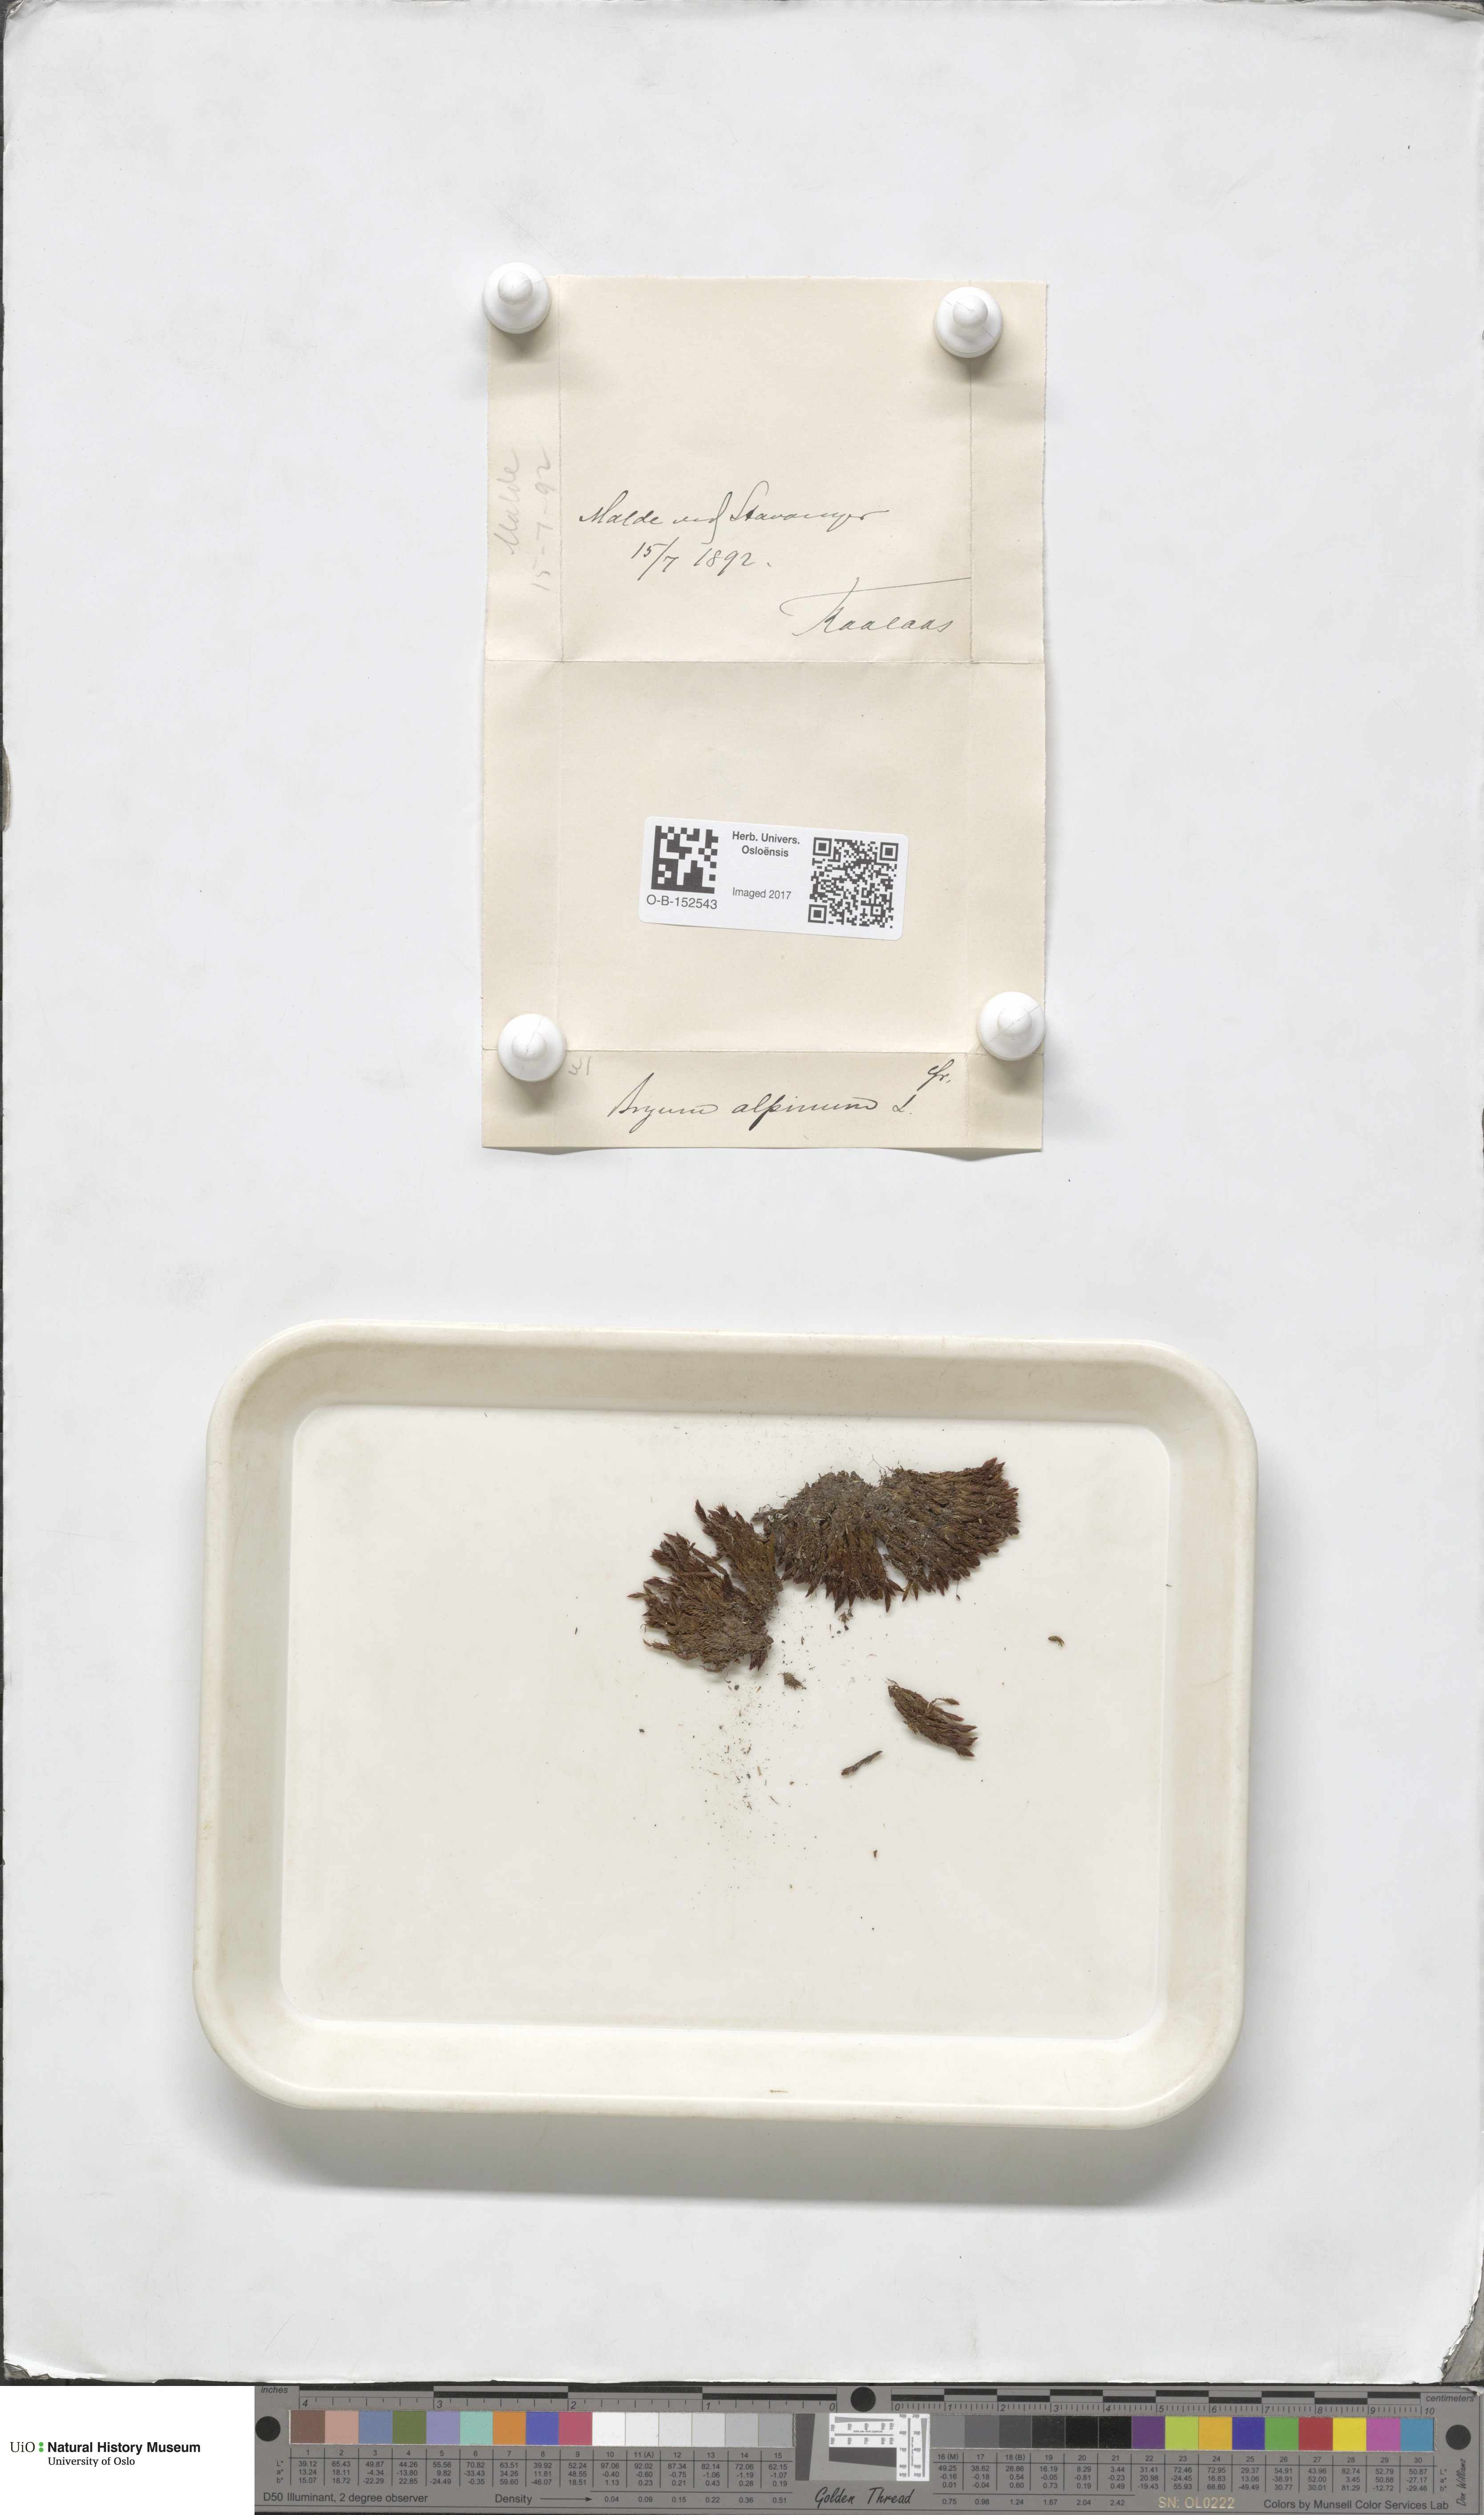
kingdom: Plantae
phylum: Bryophyta
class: Bryopsida
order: Bryales
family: Bryaceae
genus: Imbribryum
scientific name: Imbribryum alpinum
